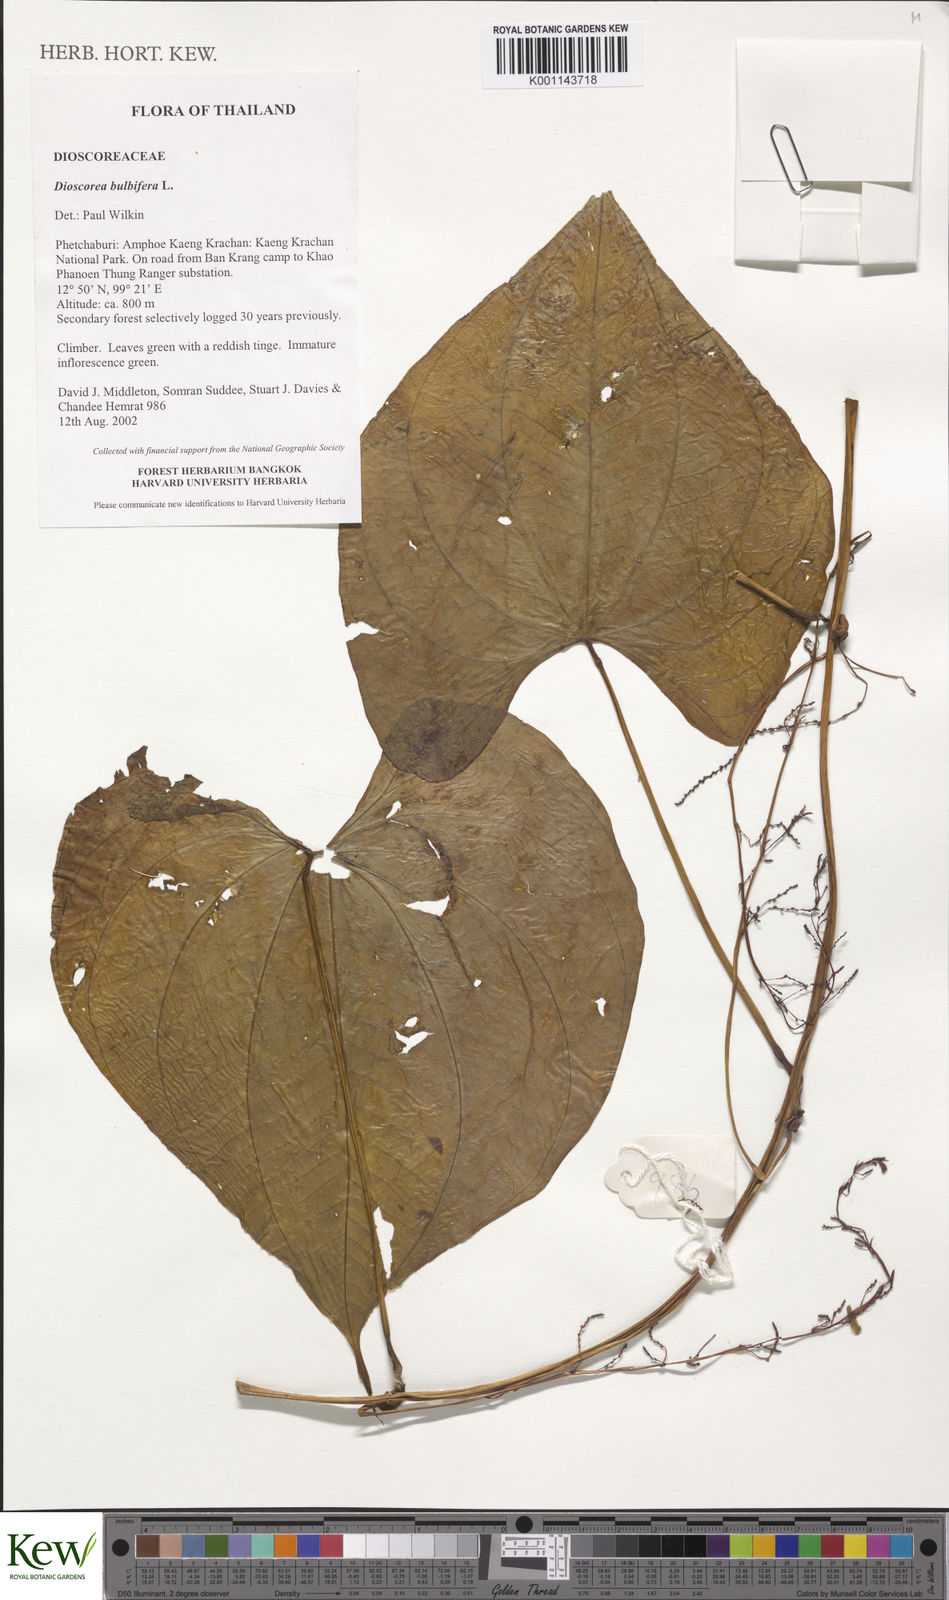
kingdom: Plantae
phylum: Tracheophyta
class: Liliopsida
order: Dioscoreales
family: Dioscoreaceae
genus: Dioscorea
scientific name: Dioscorea bulbifera
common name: Air yam
